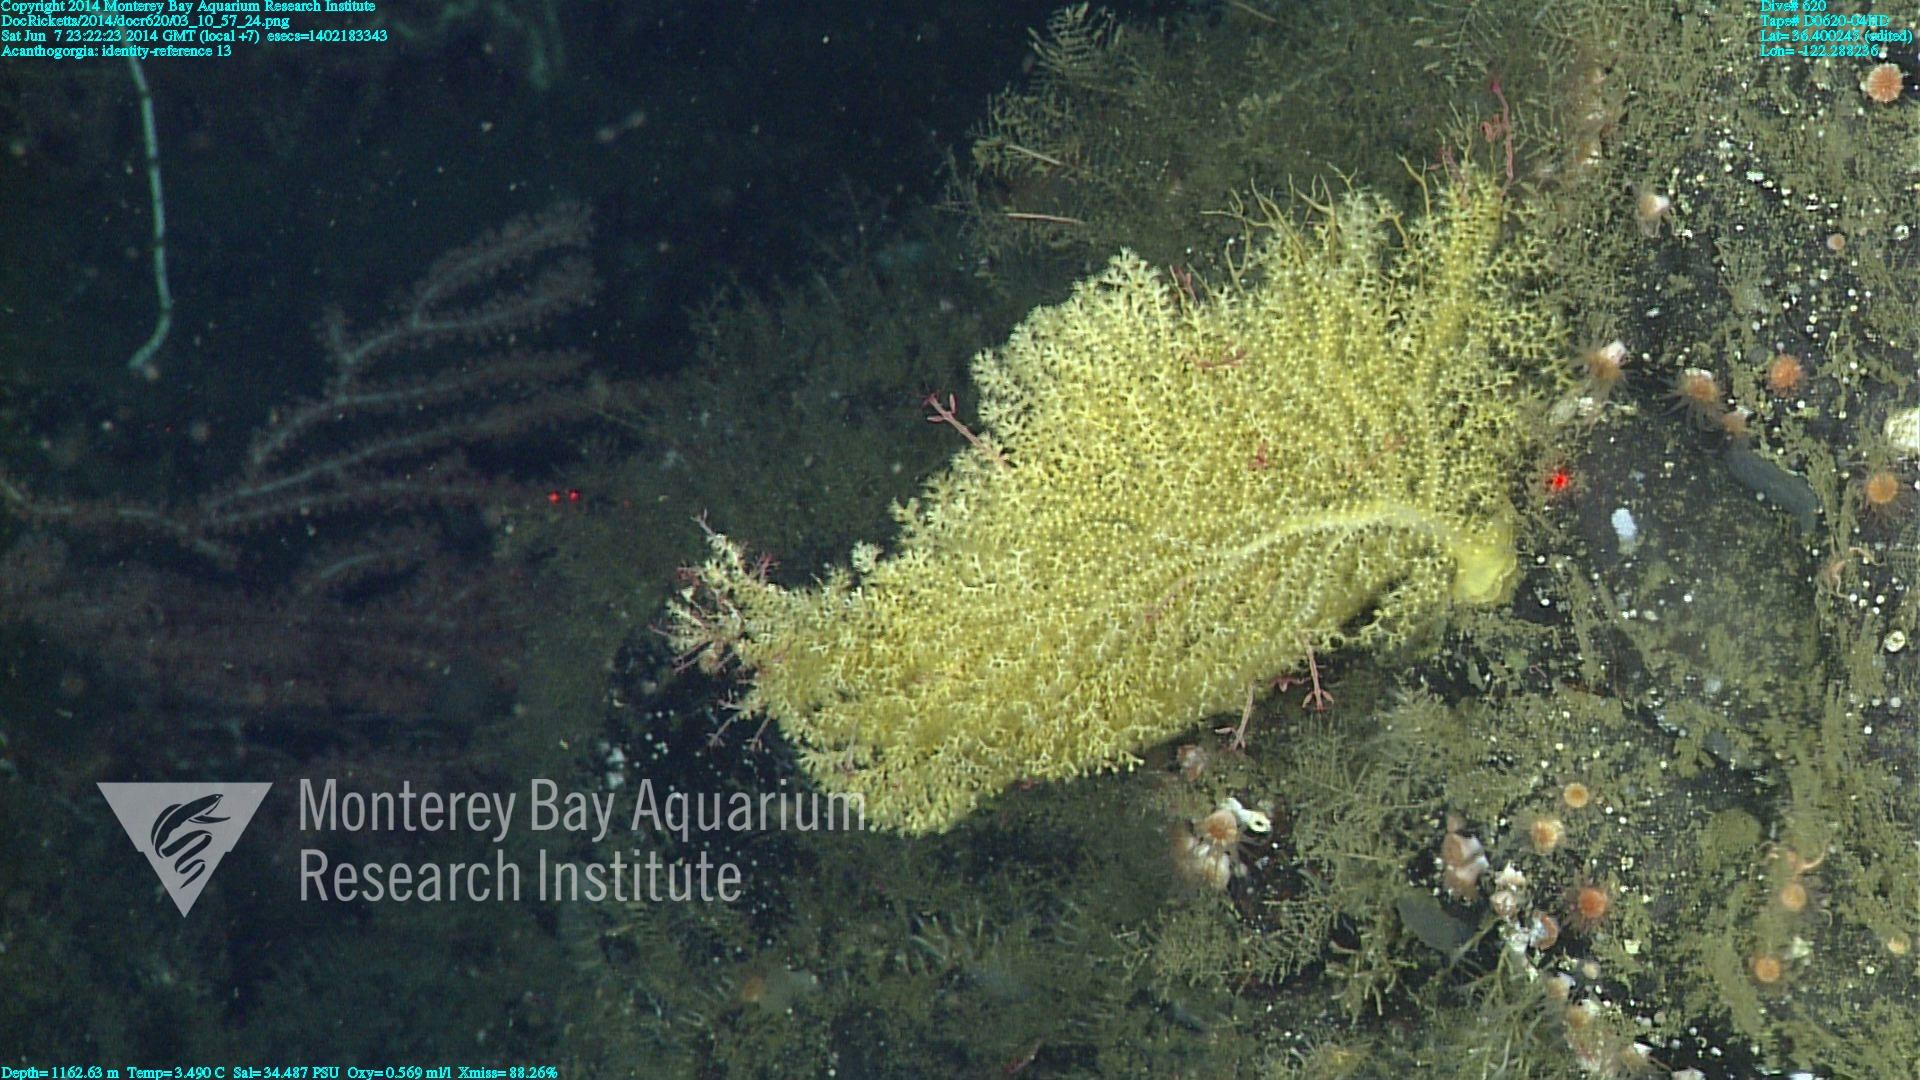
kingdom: Animalia
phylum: Cnidaria
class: Anthozoa
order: Malacalcyonacea
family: Paramuriceidae
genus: Acanthogorgia
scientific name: Acanthogorgia
